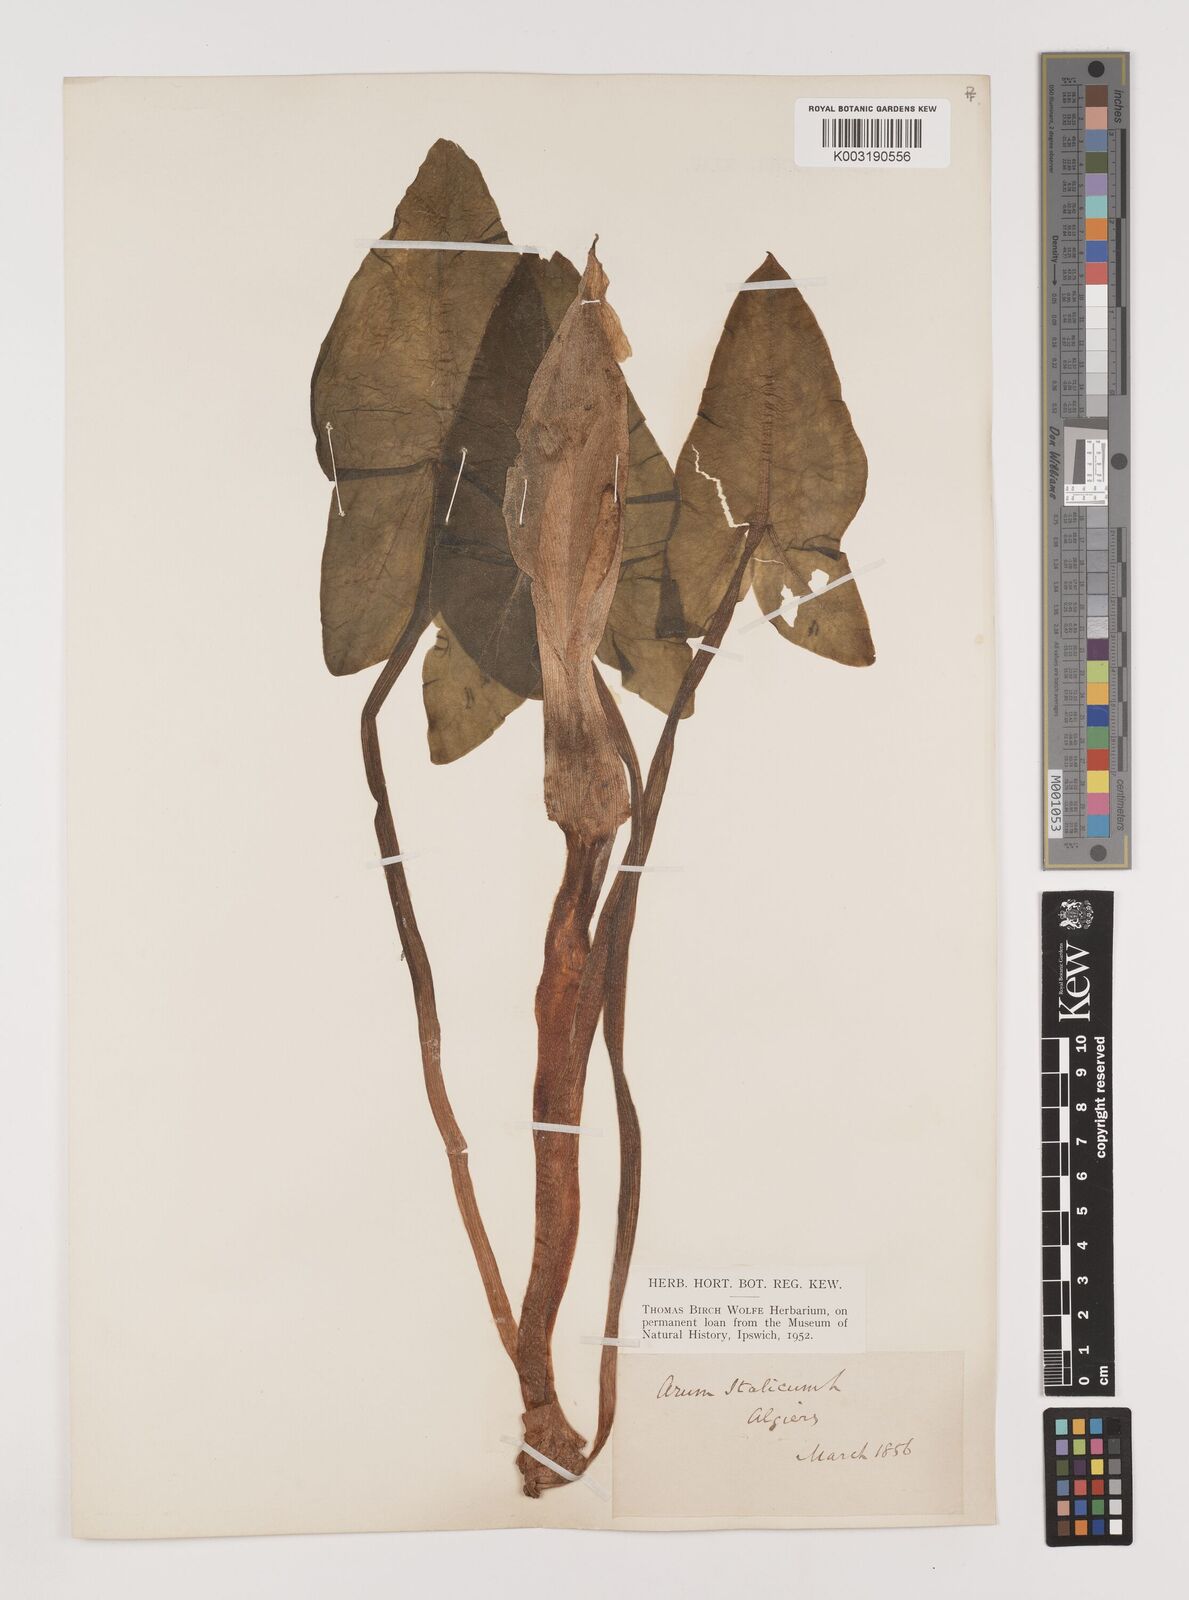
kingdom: Plantae
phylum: Tracheophyta
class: Liliopsida
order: Alismatales
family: Araceae
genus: Arum
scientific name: Arum italicum
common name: Italian lords-and-ladies
